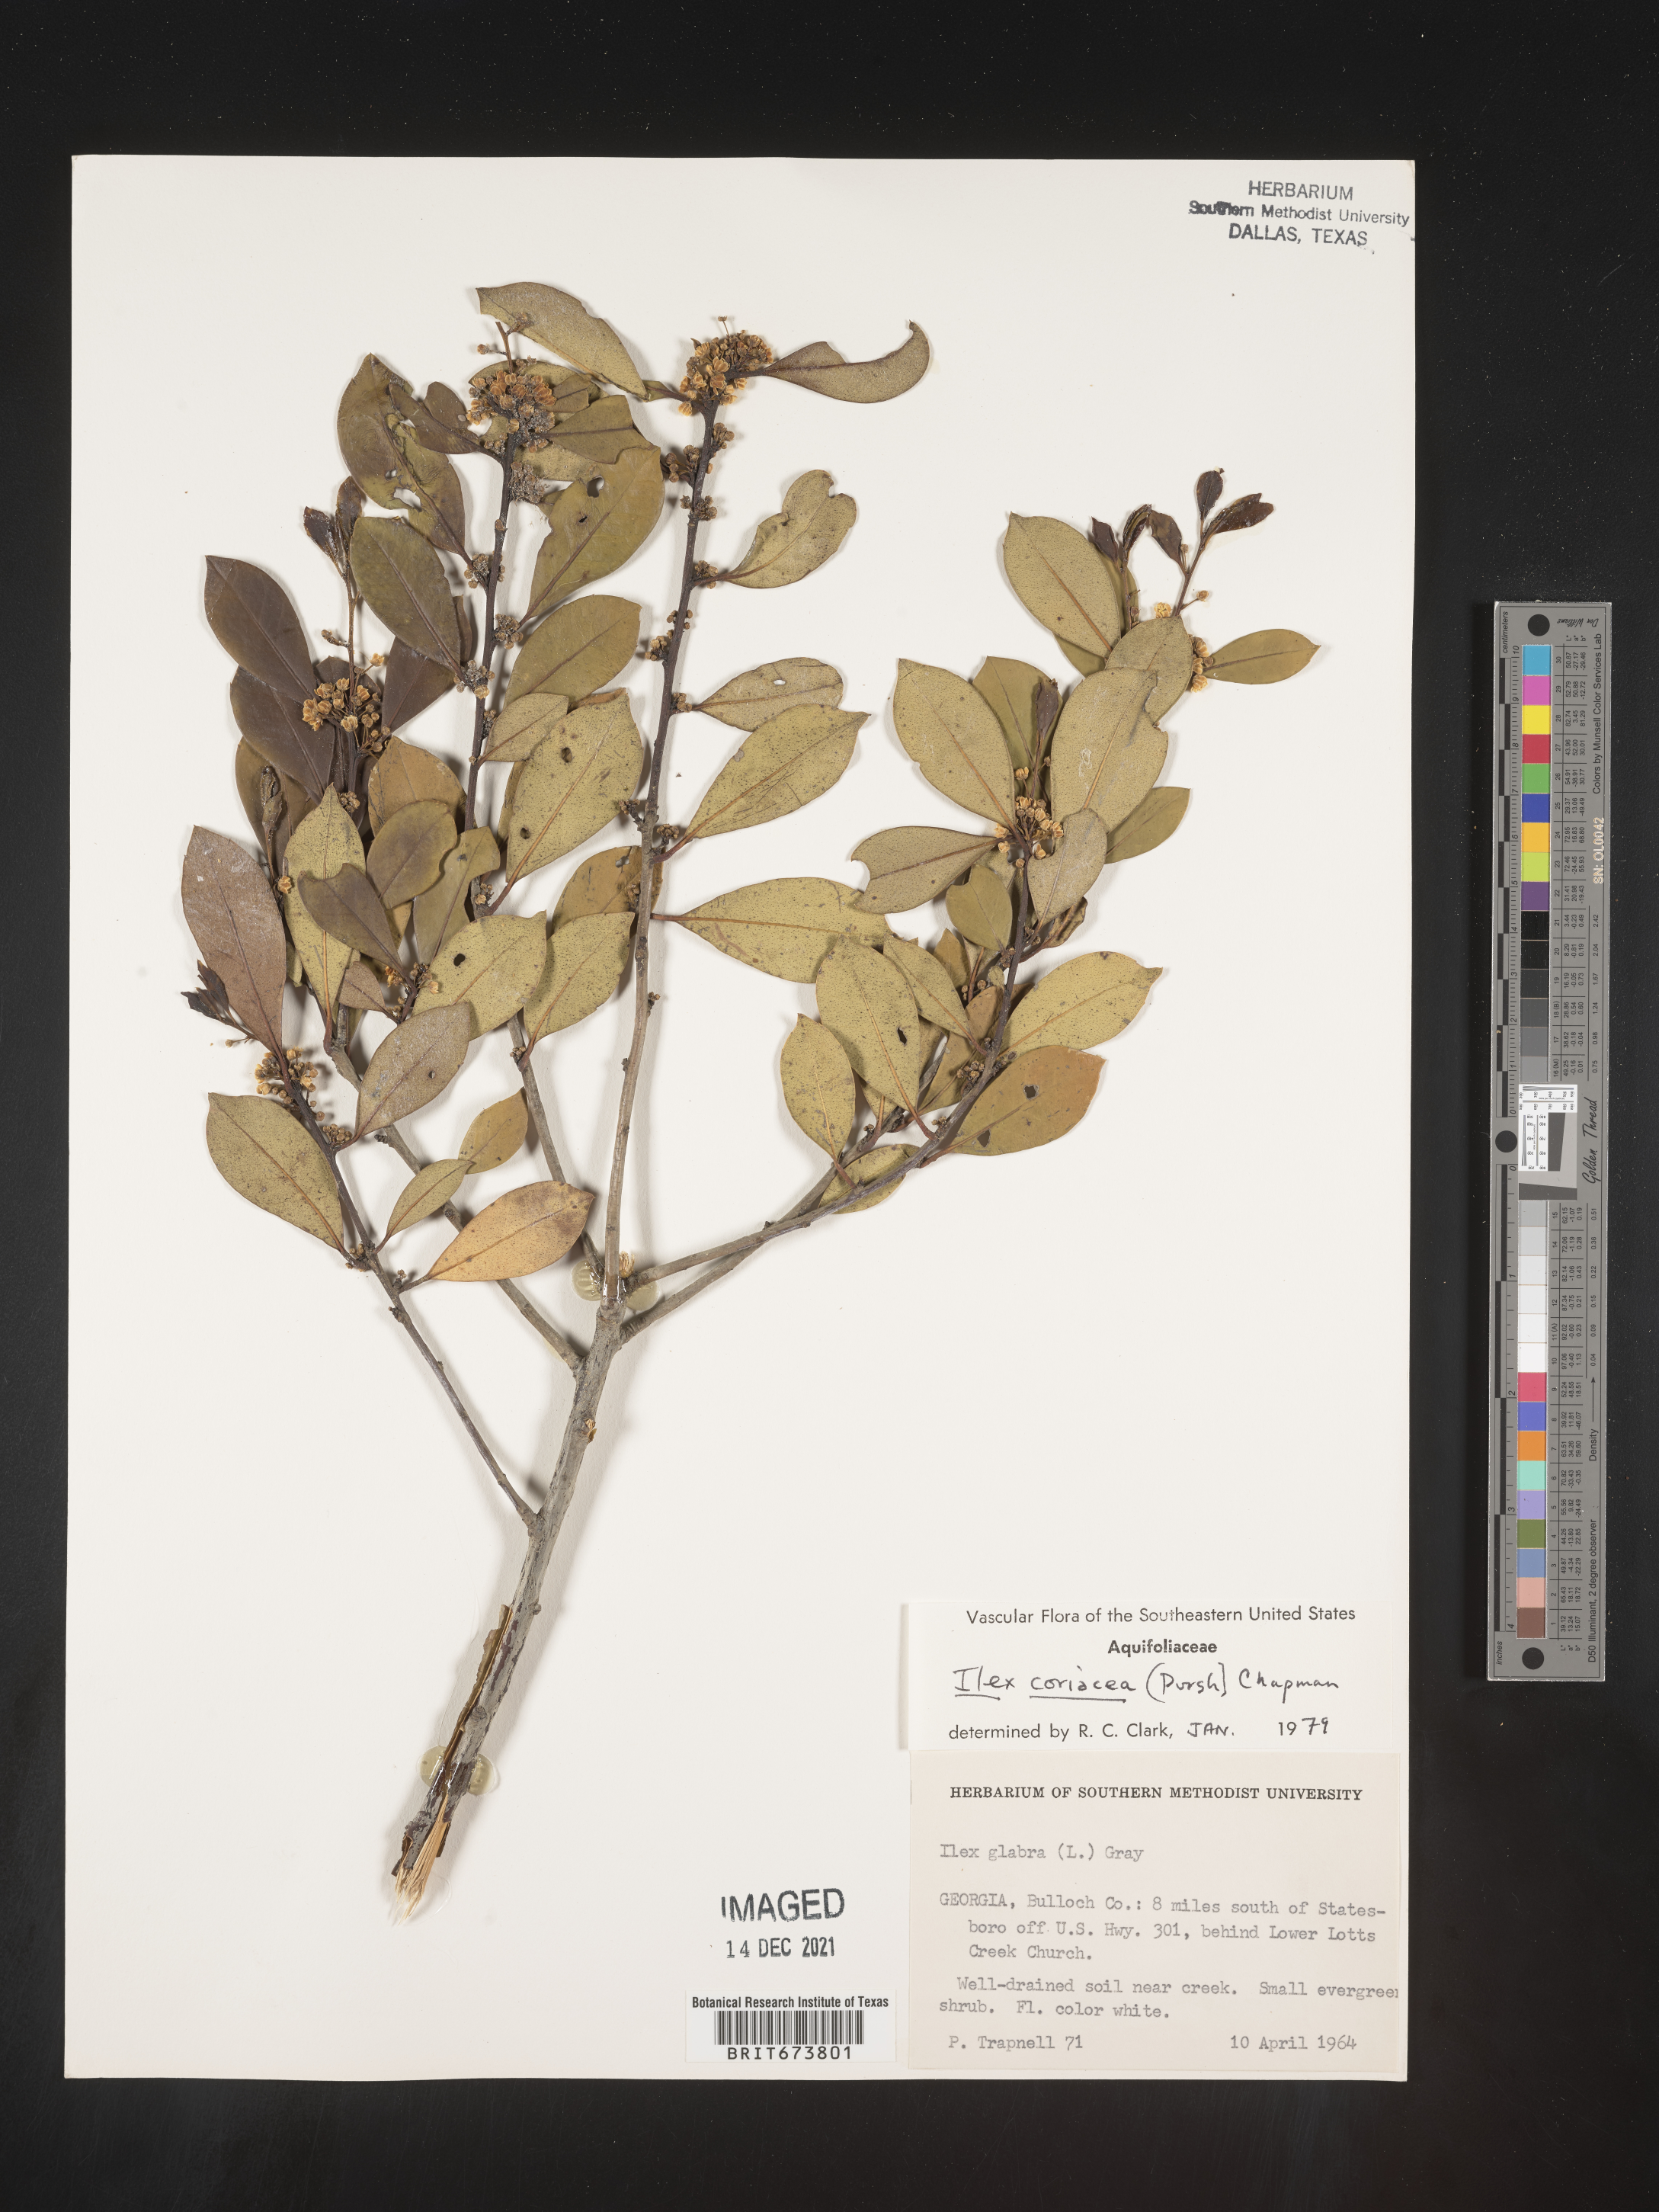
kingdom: Plantae
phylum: Tracheophyta
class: Magnoliopsida
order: Aquifoliales
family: Aquifoliaceae
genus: Ilex
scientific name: Ilex coriacea
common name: Sweet gallberry
